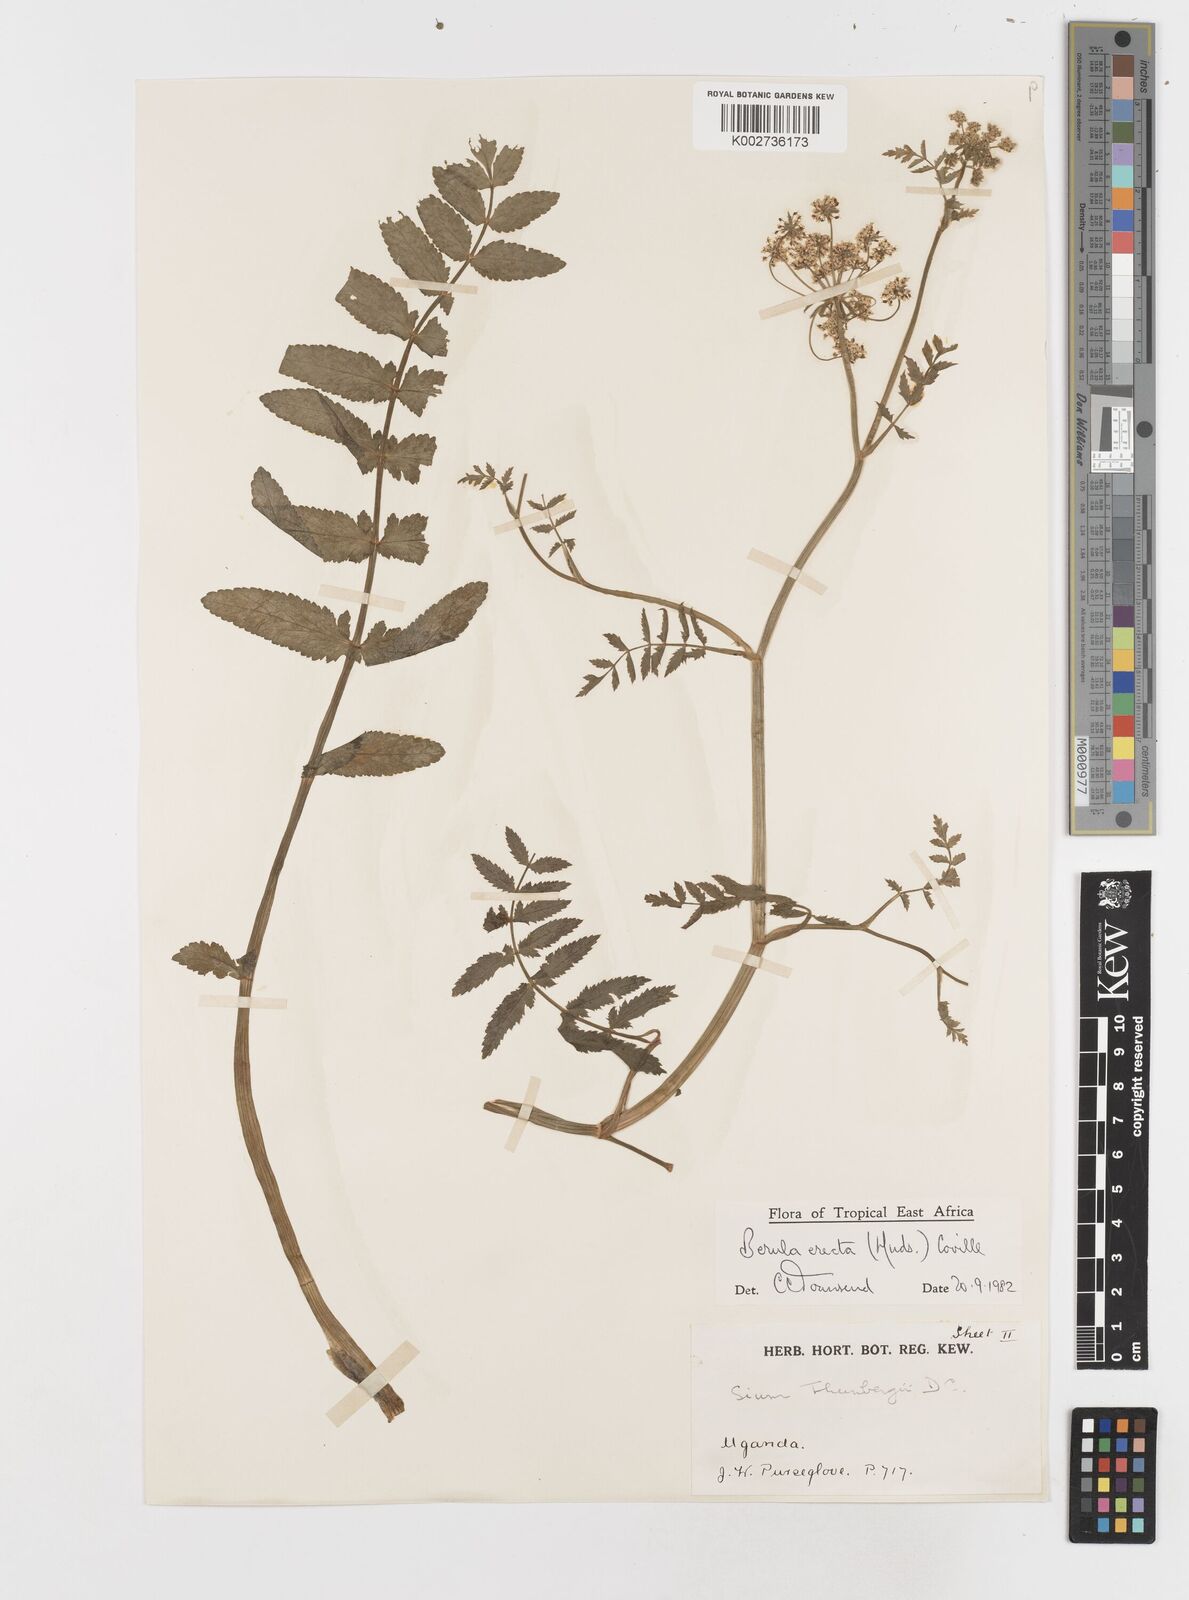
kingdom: Plantae
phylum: Tracheophyta
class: Magnoliopsida
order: Apiales
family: Apiaceae
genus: Berula
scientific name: Berula erecta
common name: Lesser water-parsnip
